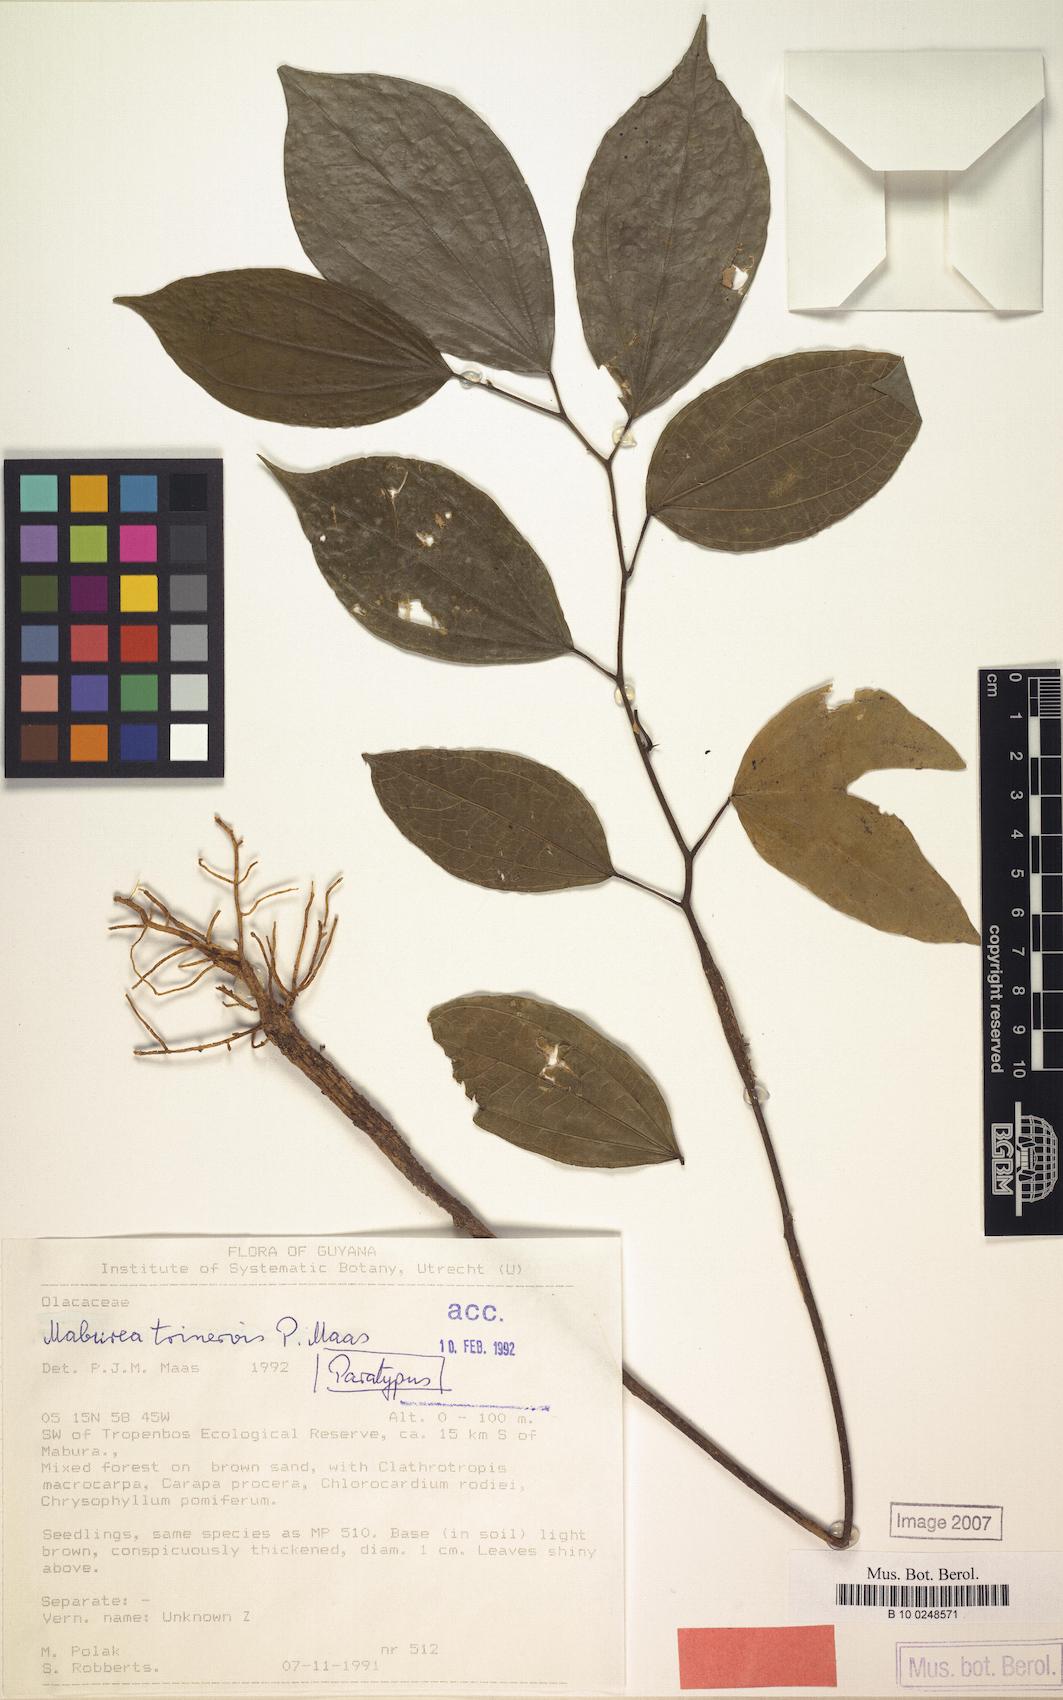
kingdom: Plantae
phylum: Tracheophyta
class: Magnoliopsida
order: Santalales
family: Erythropalaceae
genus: Maburea
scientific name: Maburea trinervis
